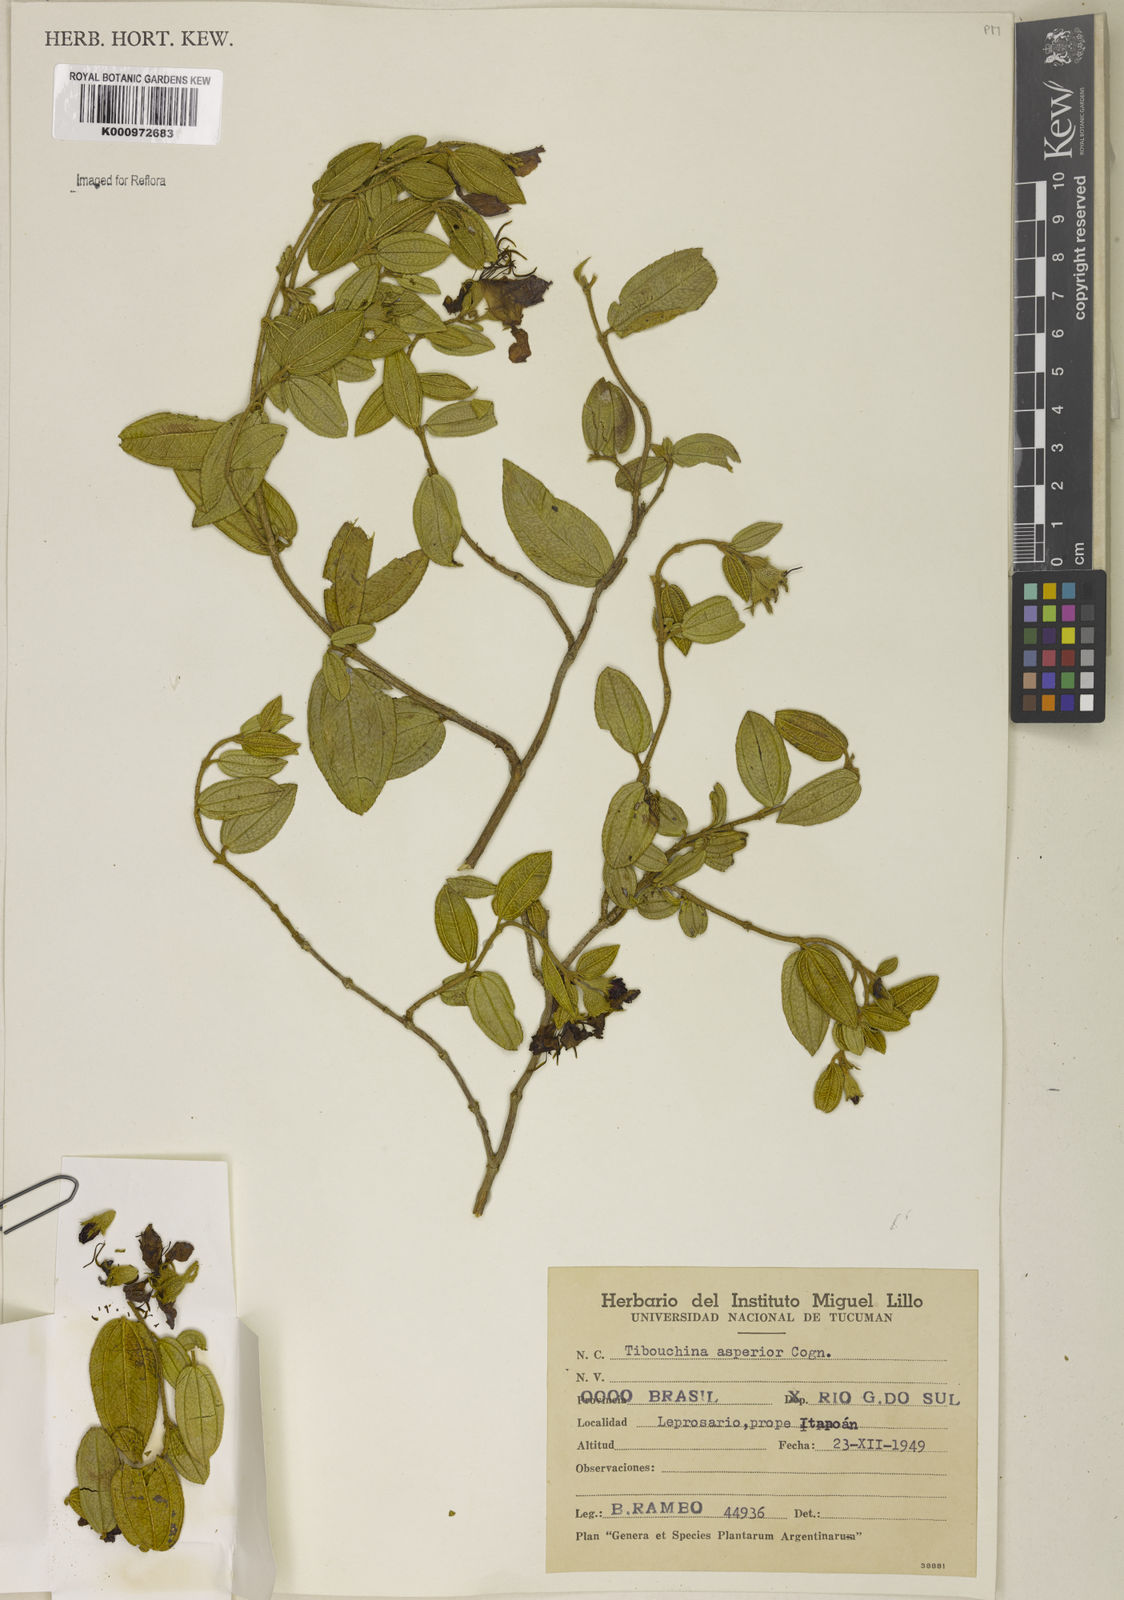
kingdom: Plantae
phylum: Tracheophyta
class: Magnoliopsida
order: Myrtales
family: Melastomataceae
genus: Pleroma
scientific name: Pleroma asperius
